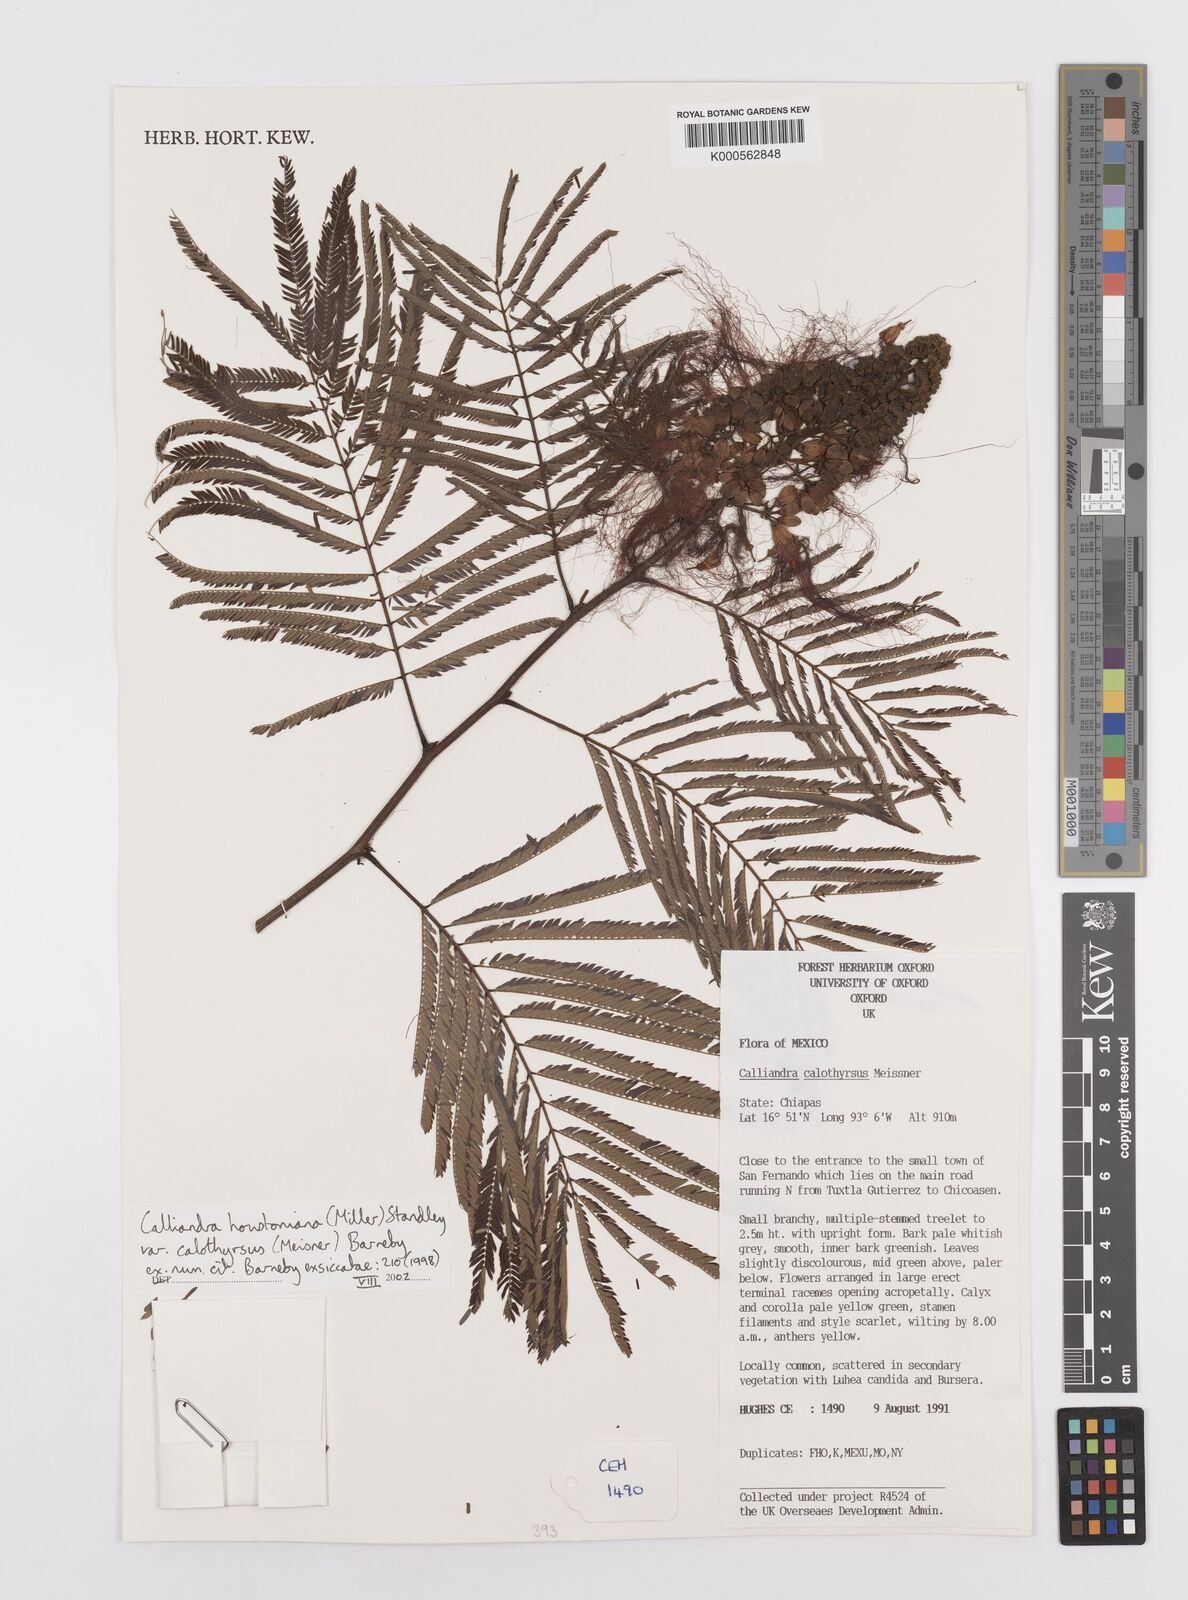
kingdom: Plantae
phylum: Tracheophyta
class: Magnoliopsida
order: Fabales
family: Fabaceae
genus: Calliandra
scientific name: Calliandra houstoniana
